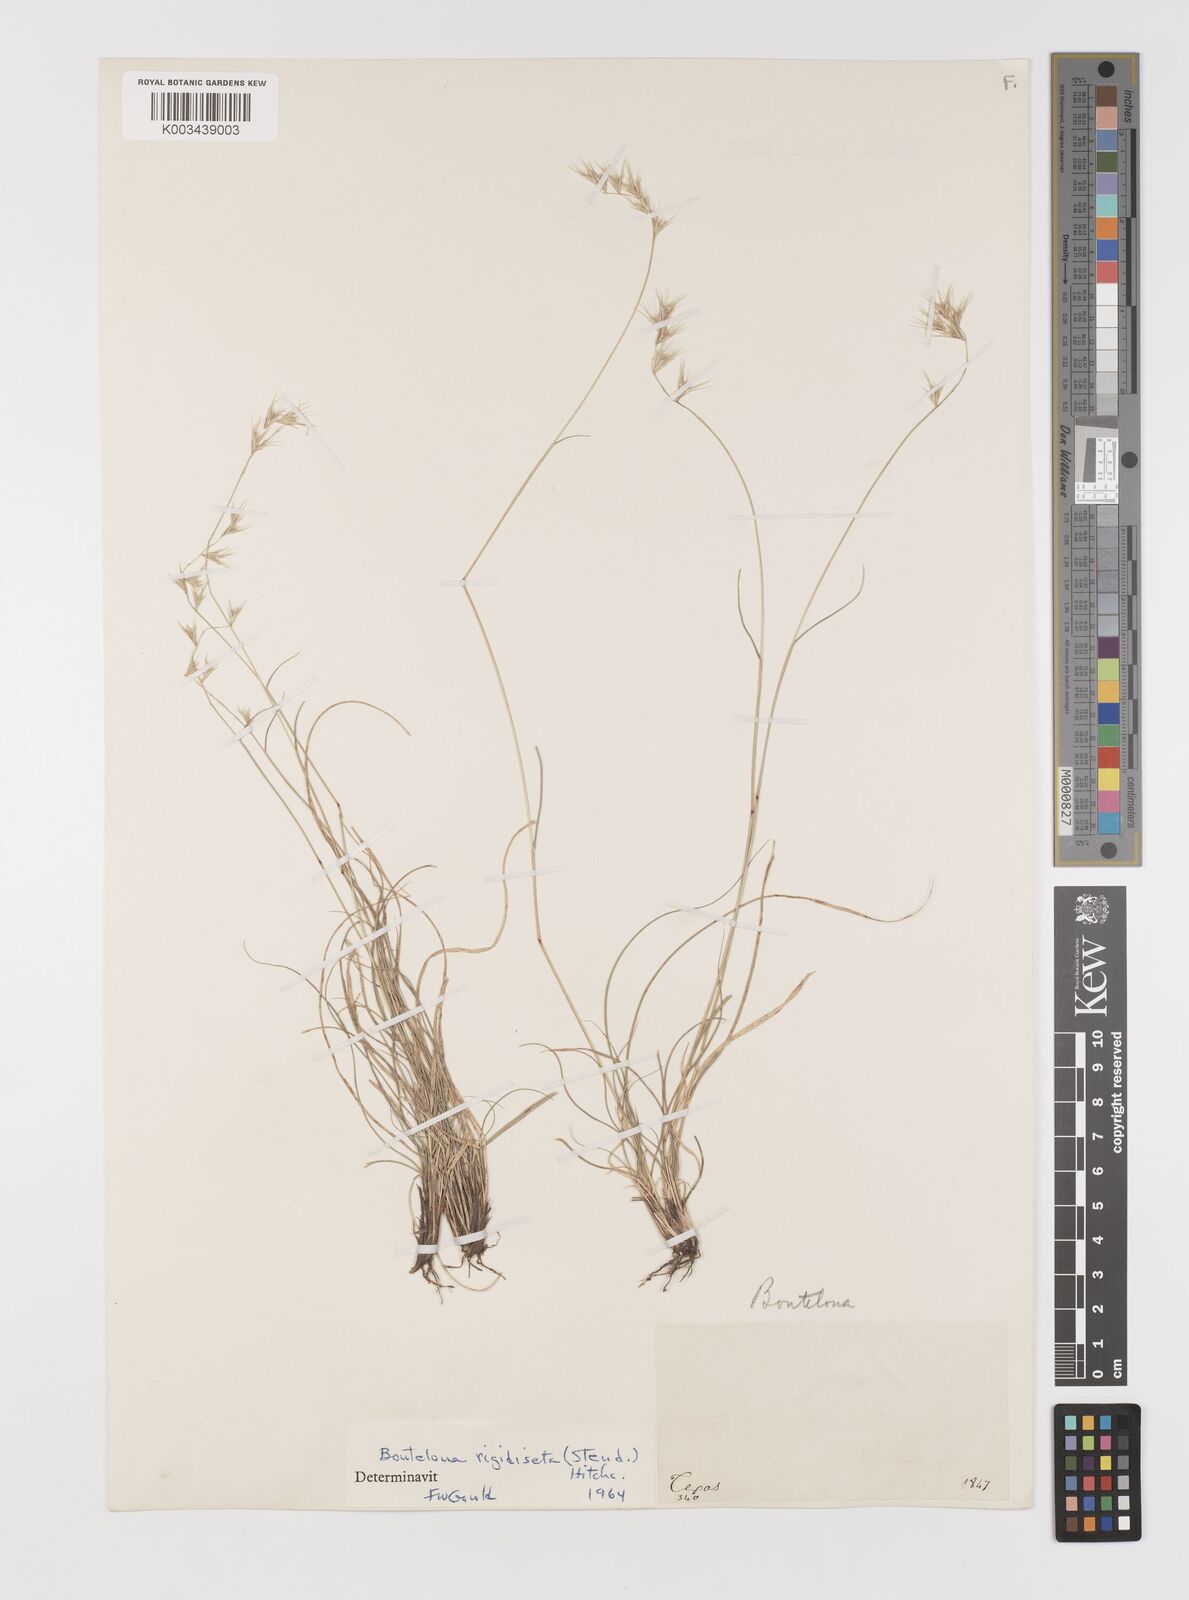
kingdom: Plantae
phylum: Tracheophyta
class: Liliopsida
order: Poales
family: Poaceae
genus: Bouteloua
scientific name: Bouteloua rigidiseta
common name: Texas grama
